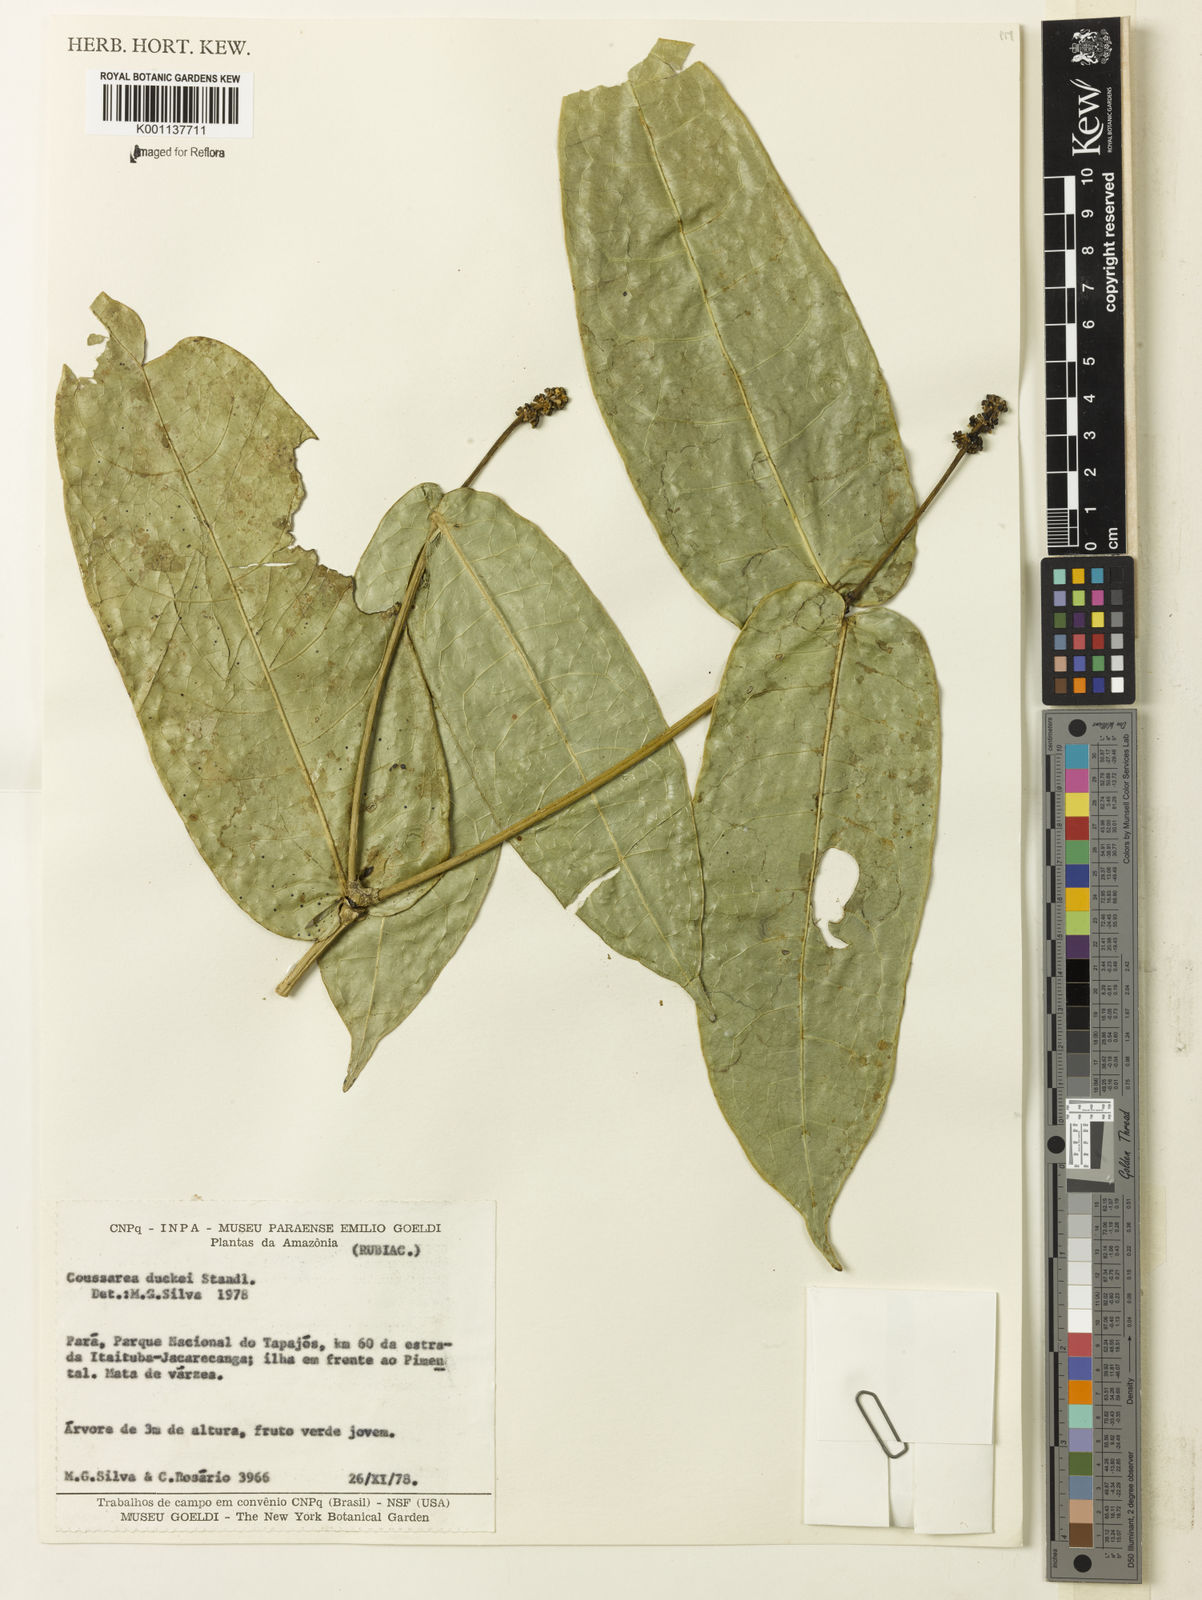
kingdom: Plantae
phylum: Tracheophyta
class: Magnoliopsida
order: Gentianales
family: Rubiaceae
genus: Coussarea
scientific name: Coussarea duckei
